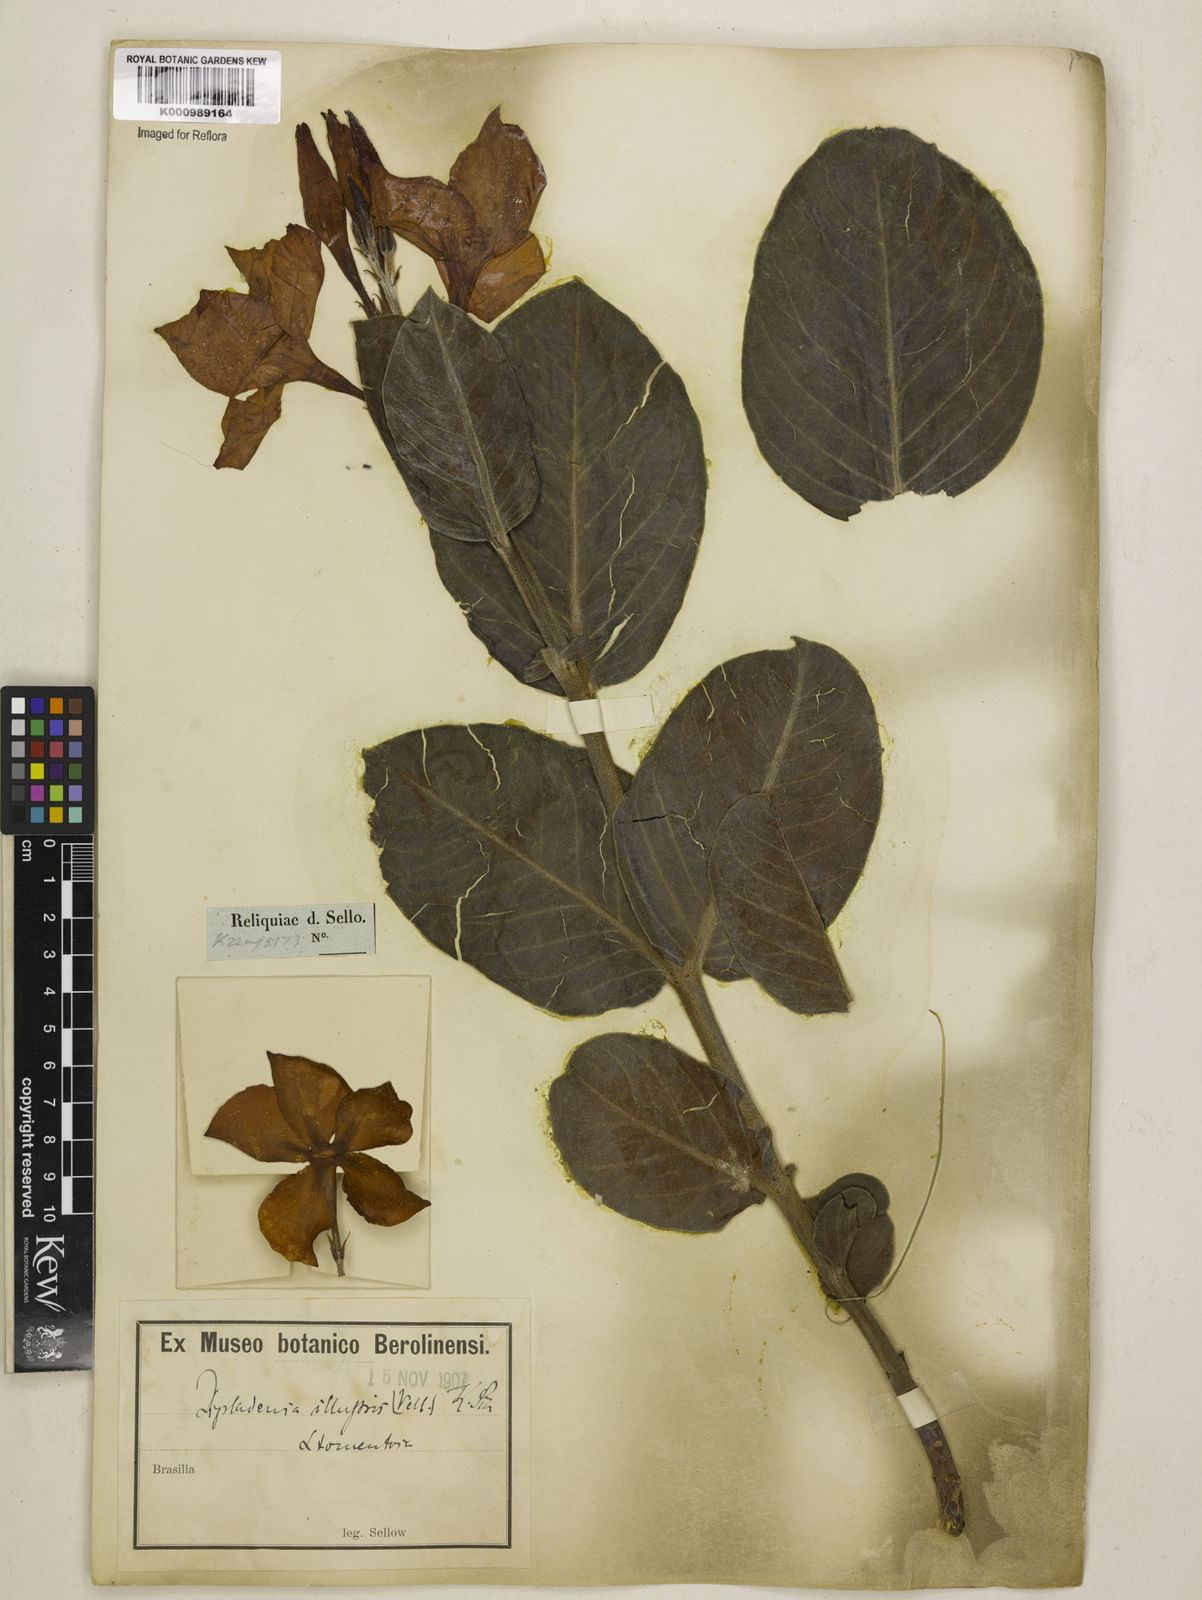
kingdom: Plantae
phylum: Tracheophyta
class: Magnoliopsida
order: Gentianales
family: Apocynaceae
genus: Mandevilla
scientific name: Mandevilla illustris
